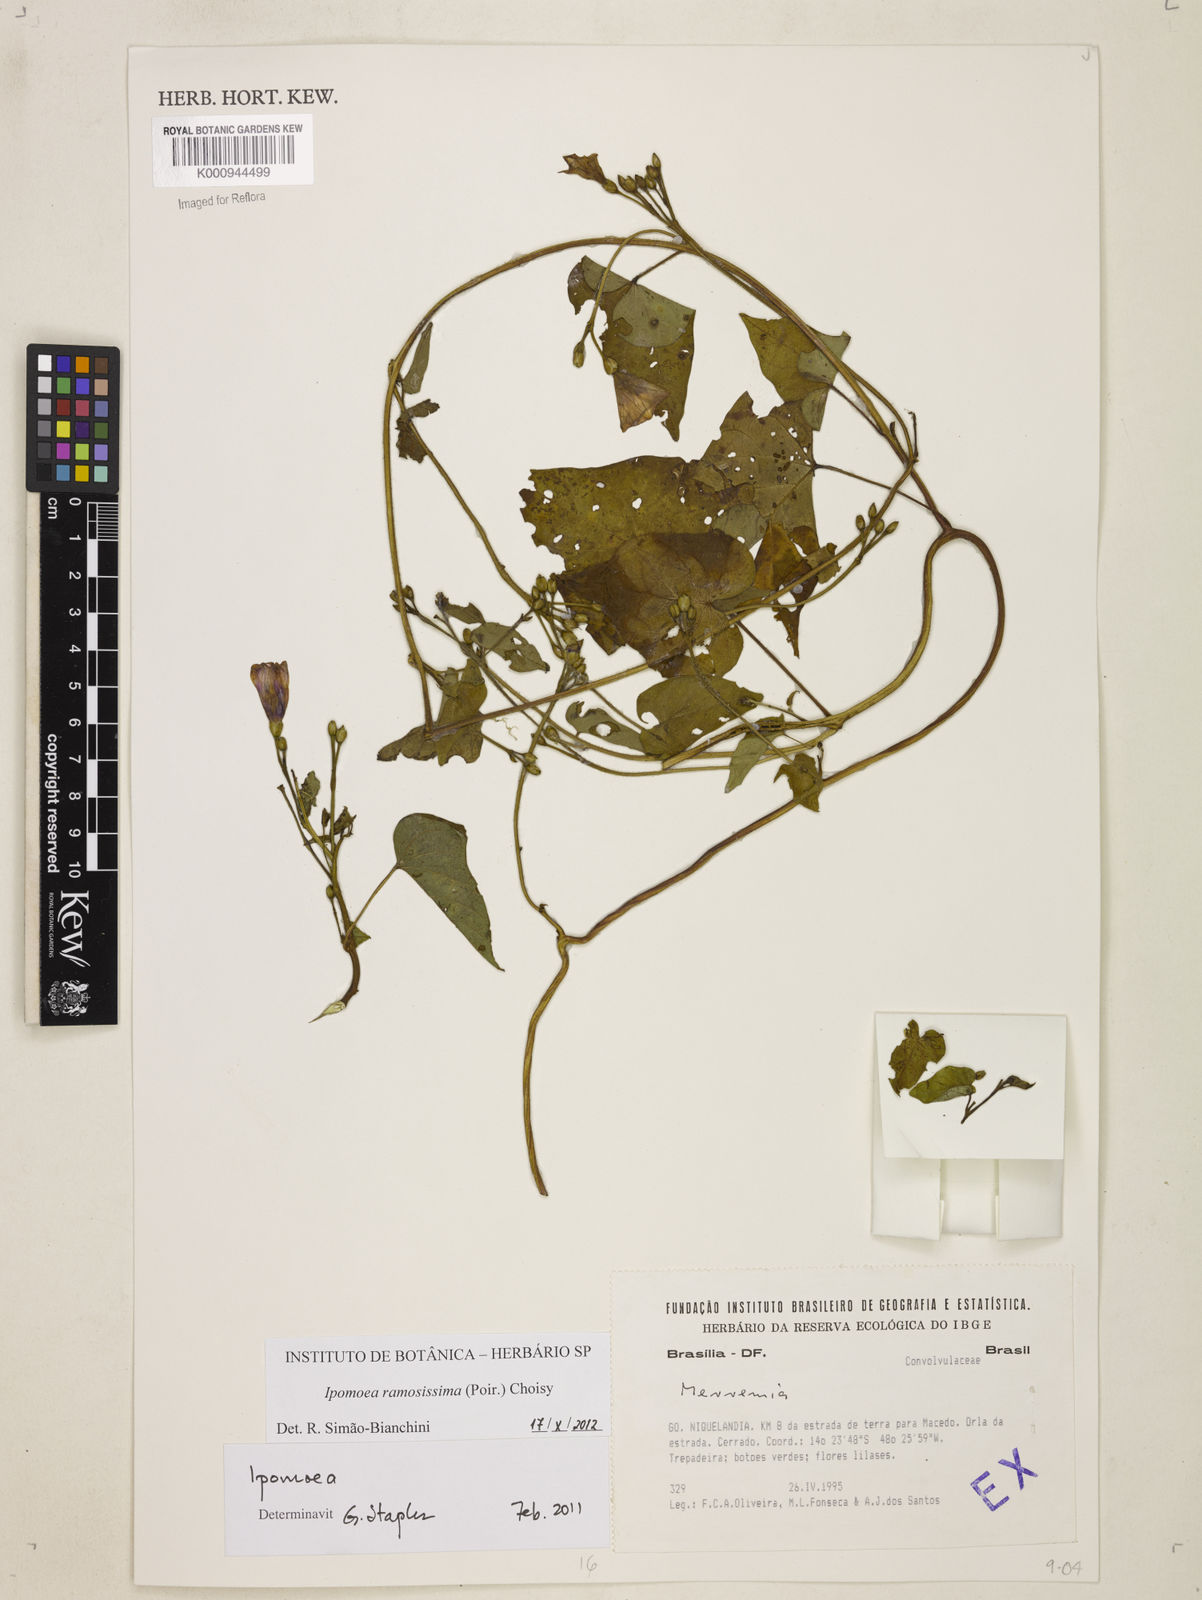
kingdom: Plantae
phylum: Tracheophyta
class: Magnoliopsida
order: Solanales
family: Convolvulaceae
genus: Ipomoea
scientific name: Ipomoea ramosissima
